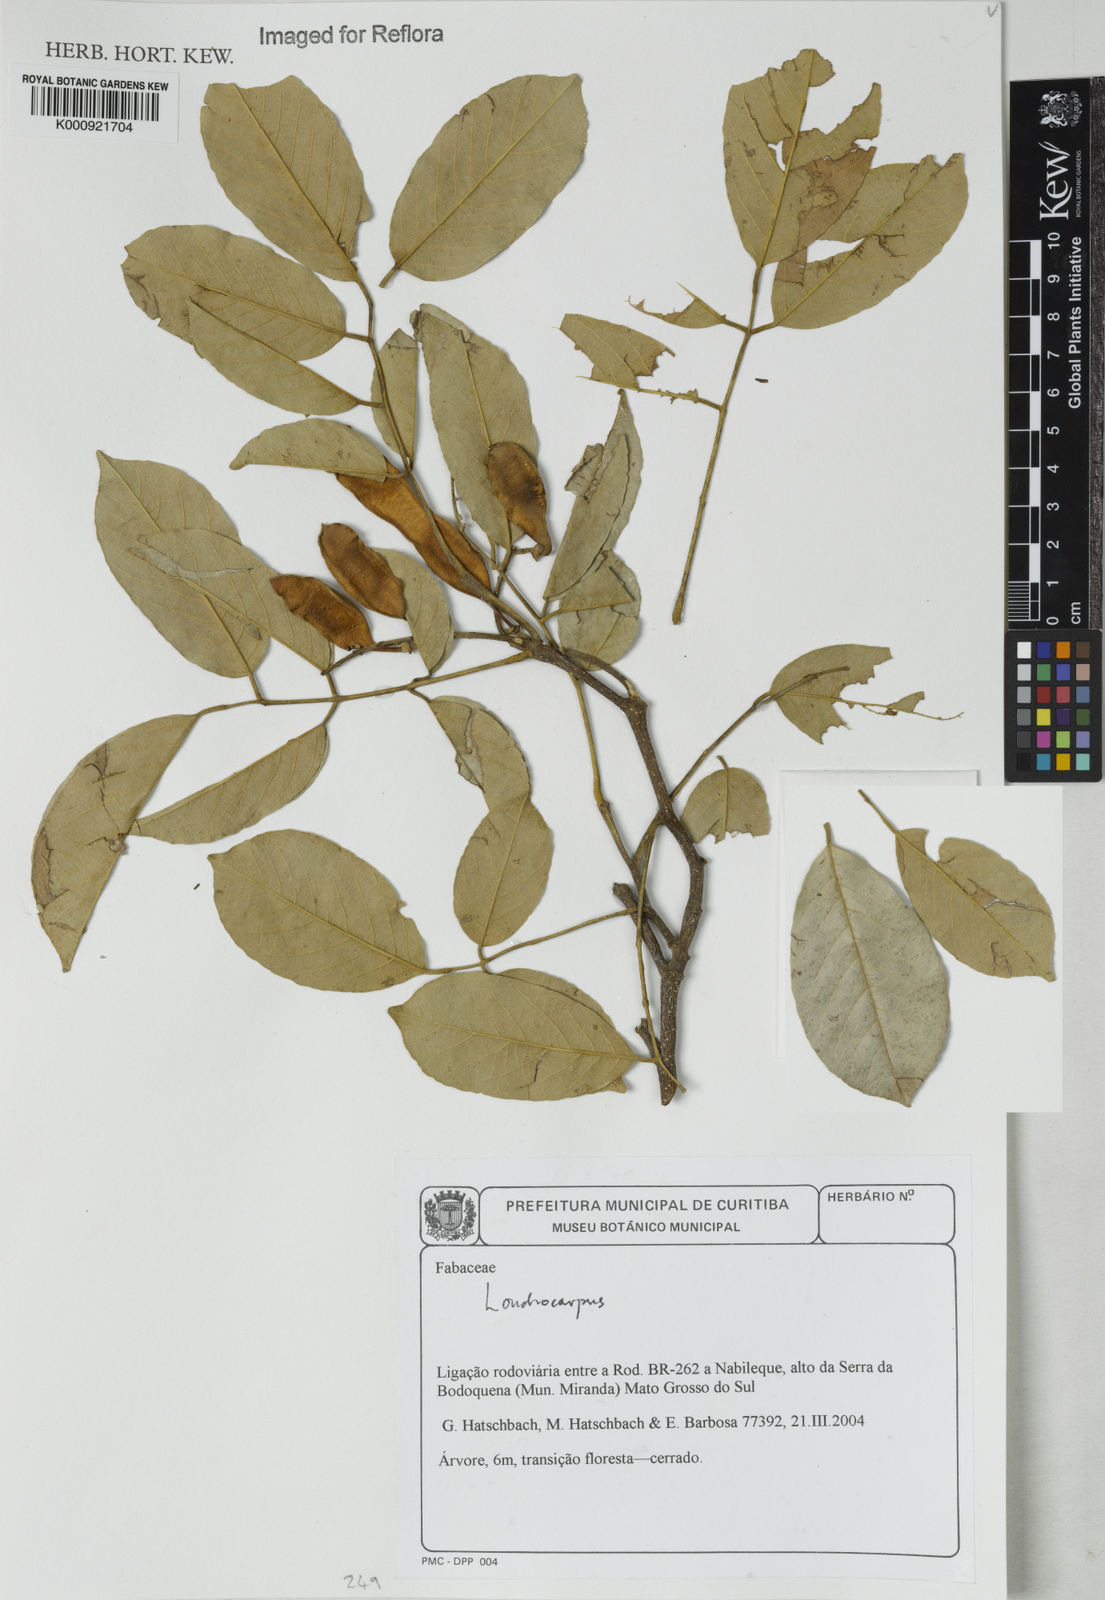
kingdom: Plantae
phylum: Tracheophyta
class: Magnoliopsida
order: Fabales
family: Fabaceae
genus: Lonchocarpus
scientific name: Lonchocarpus
